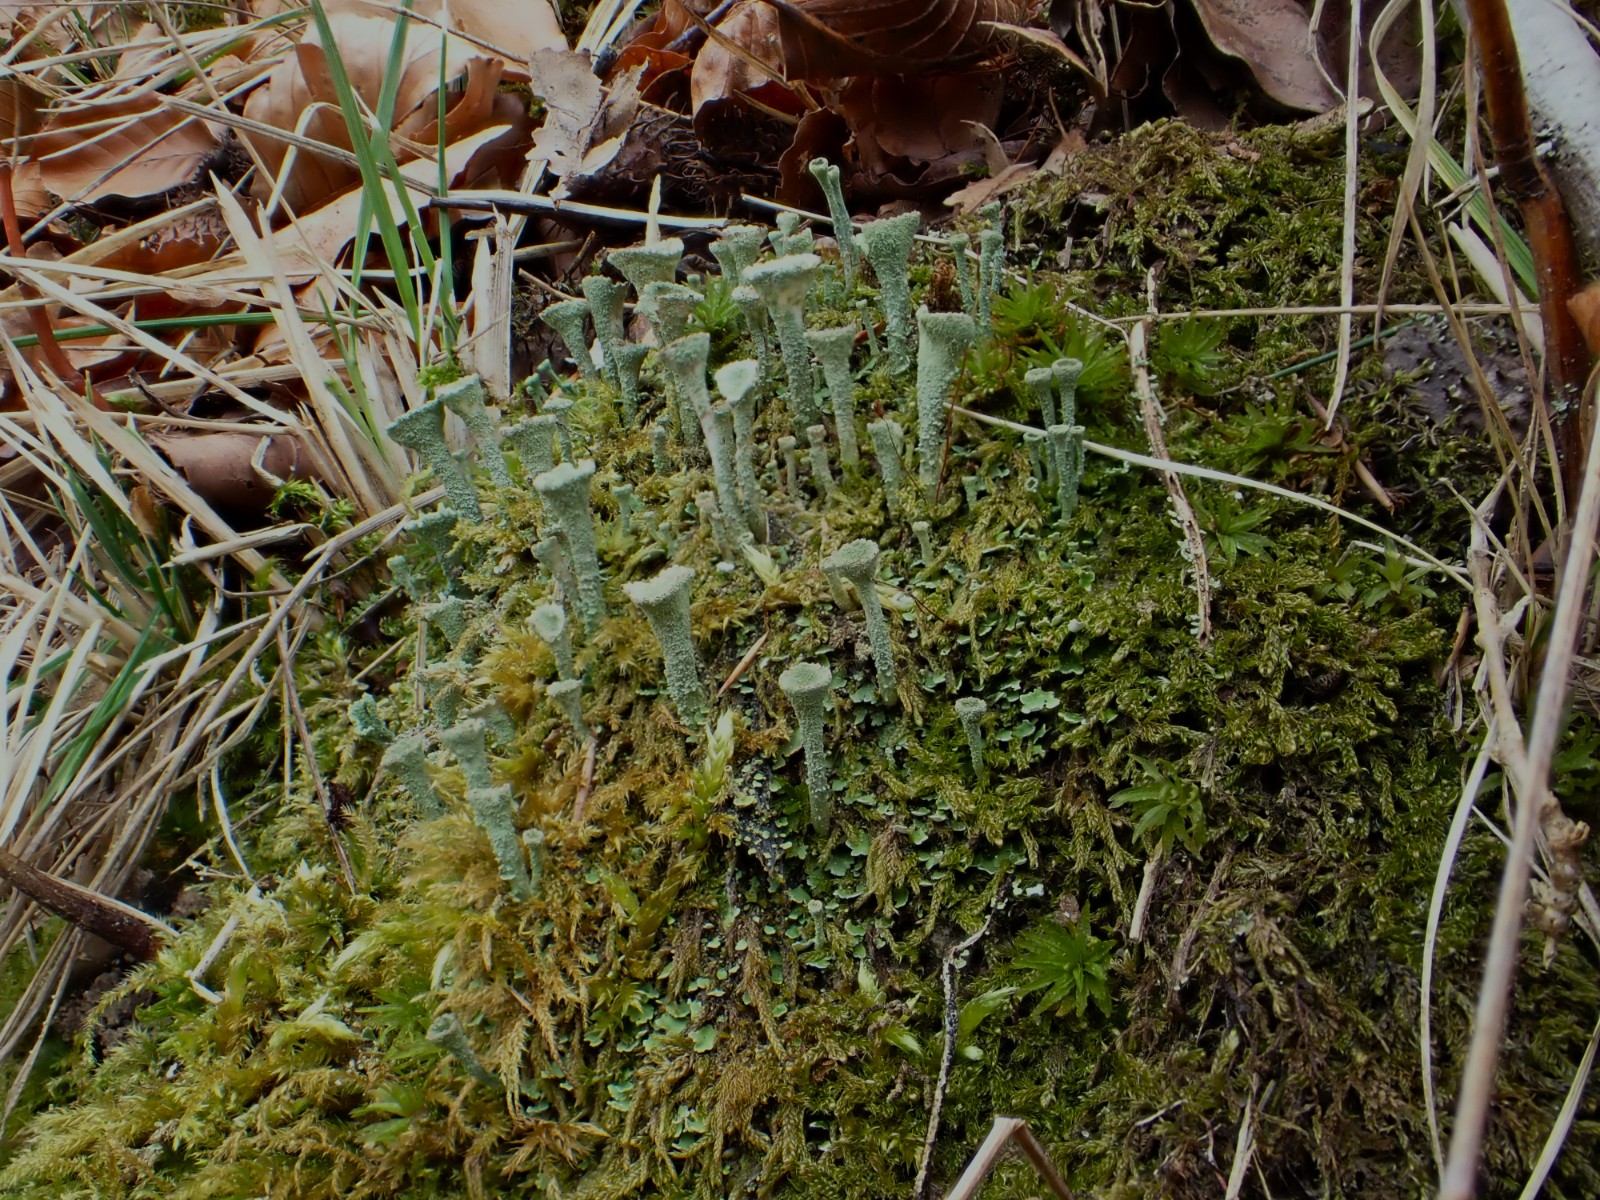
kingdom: Fungi
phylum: Ascomycota
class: Lecanoromycetes
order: Lecanorales
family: Cladoniaceae
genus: Cladonia
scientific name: Cladonia
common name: brungrøn bægerlav
